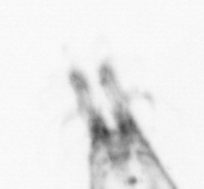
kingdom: Animalia
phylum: Arthropoda
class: Copepoda
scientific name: Copepoda
